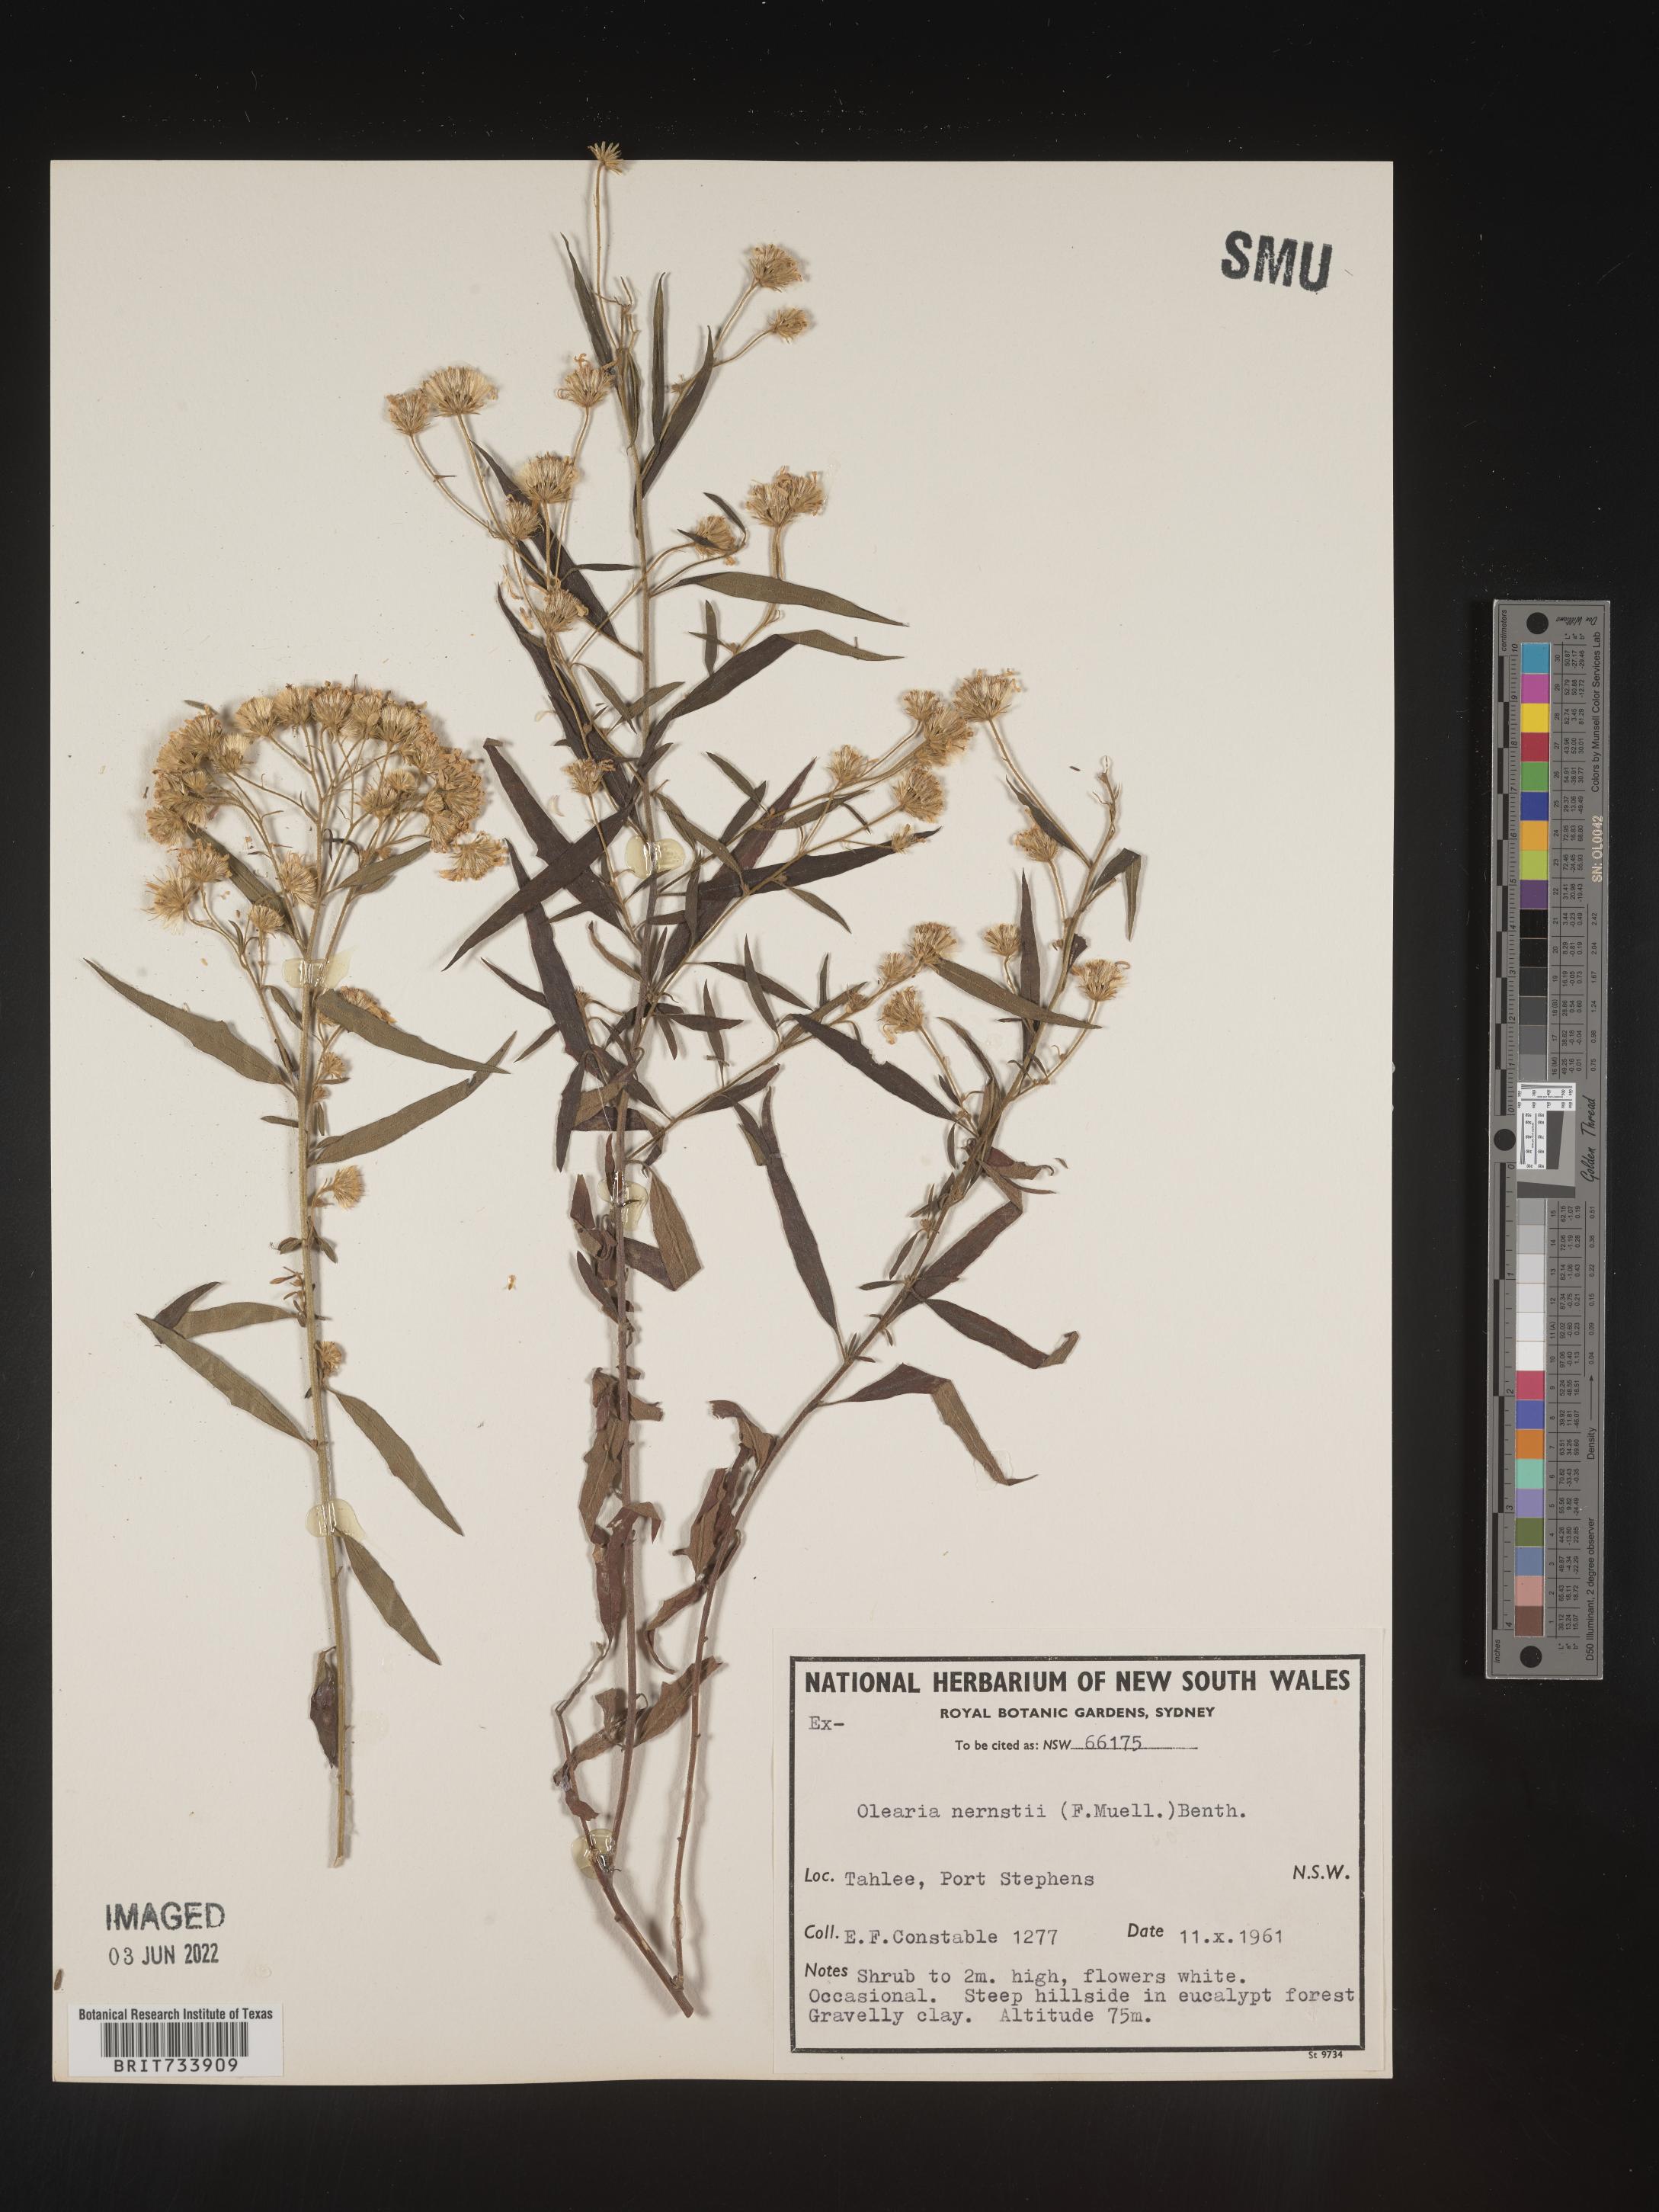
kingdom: Plantae
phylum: Tracheophyta
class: Magnoliopsida
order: Asterales
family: Asteraceae
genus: Olearia
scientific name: Olearia
